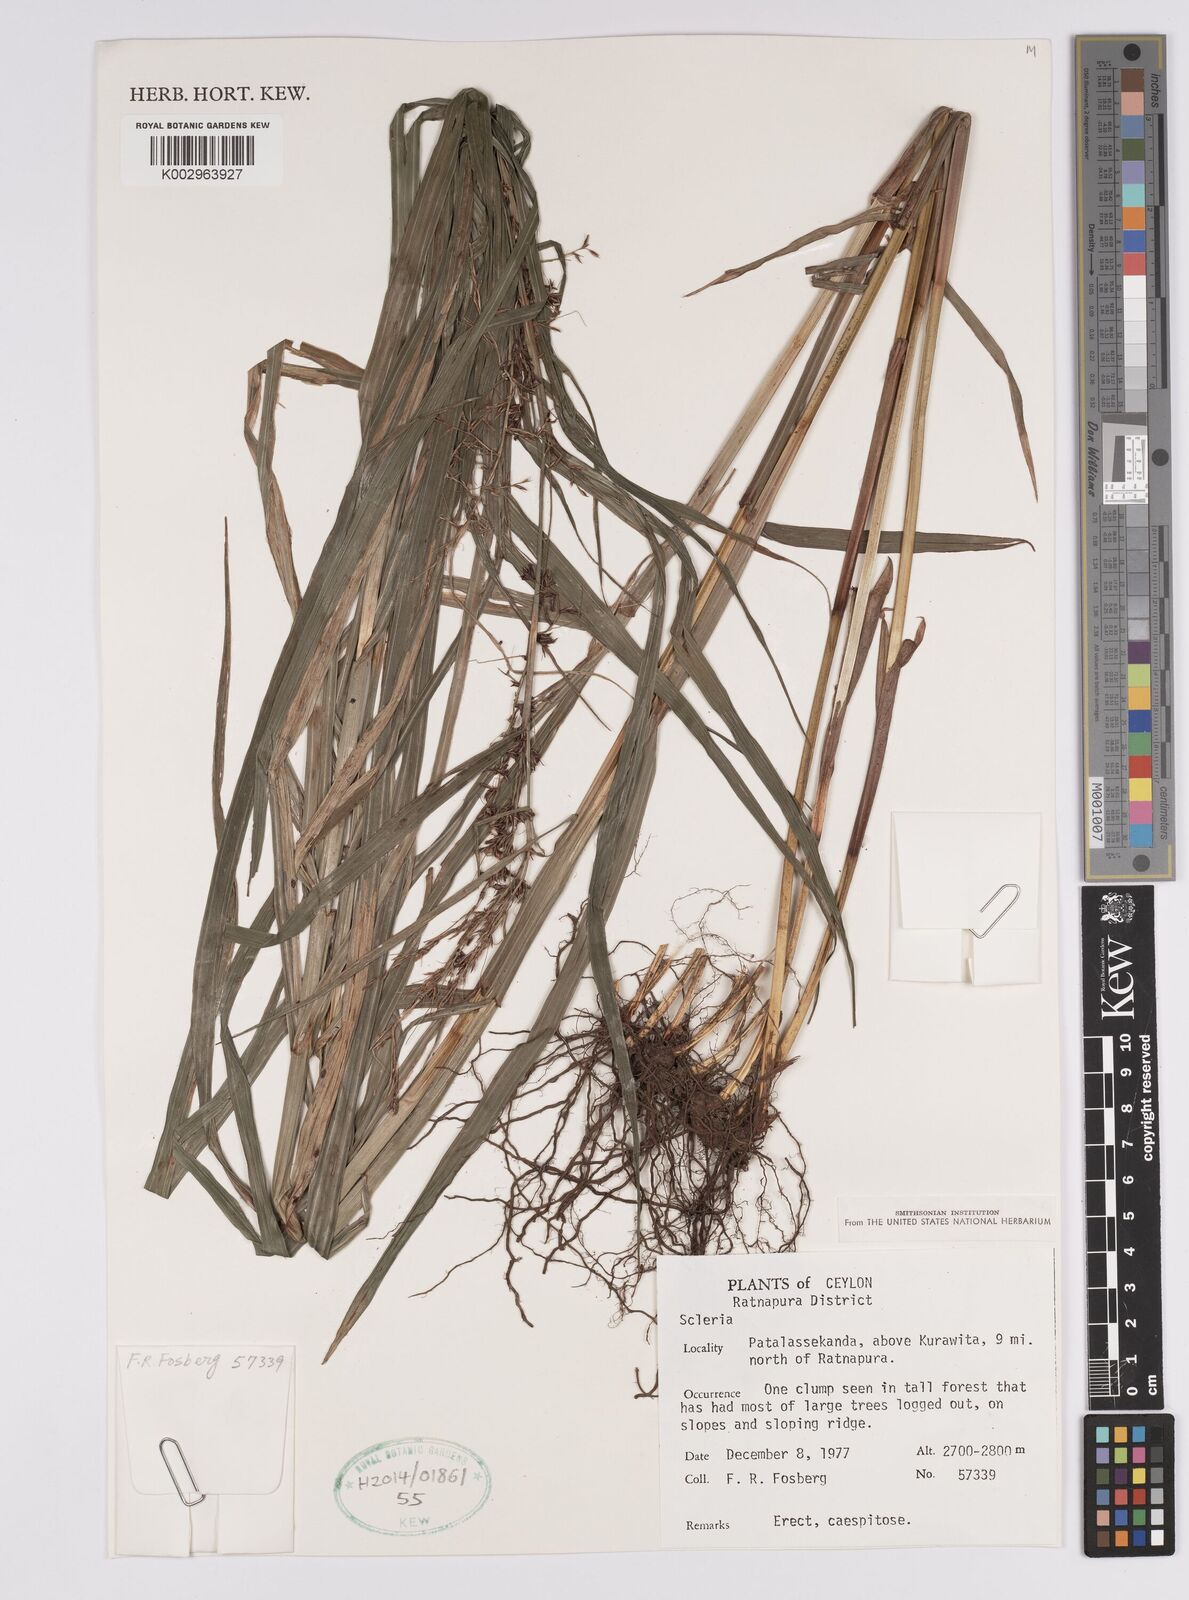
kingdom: Plantae
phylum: Tracheophyta
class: Liliopsida
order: Poales
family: Cyperaceae
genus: Scleria
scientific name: Scleria
